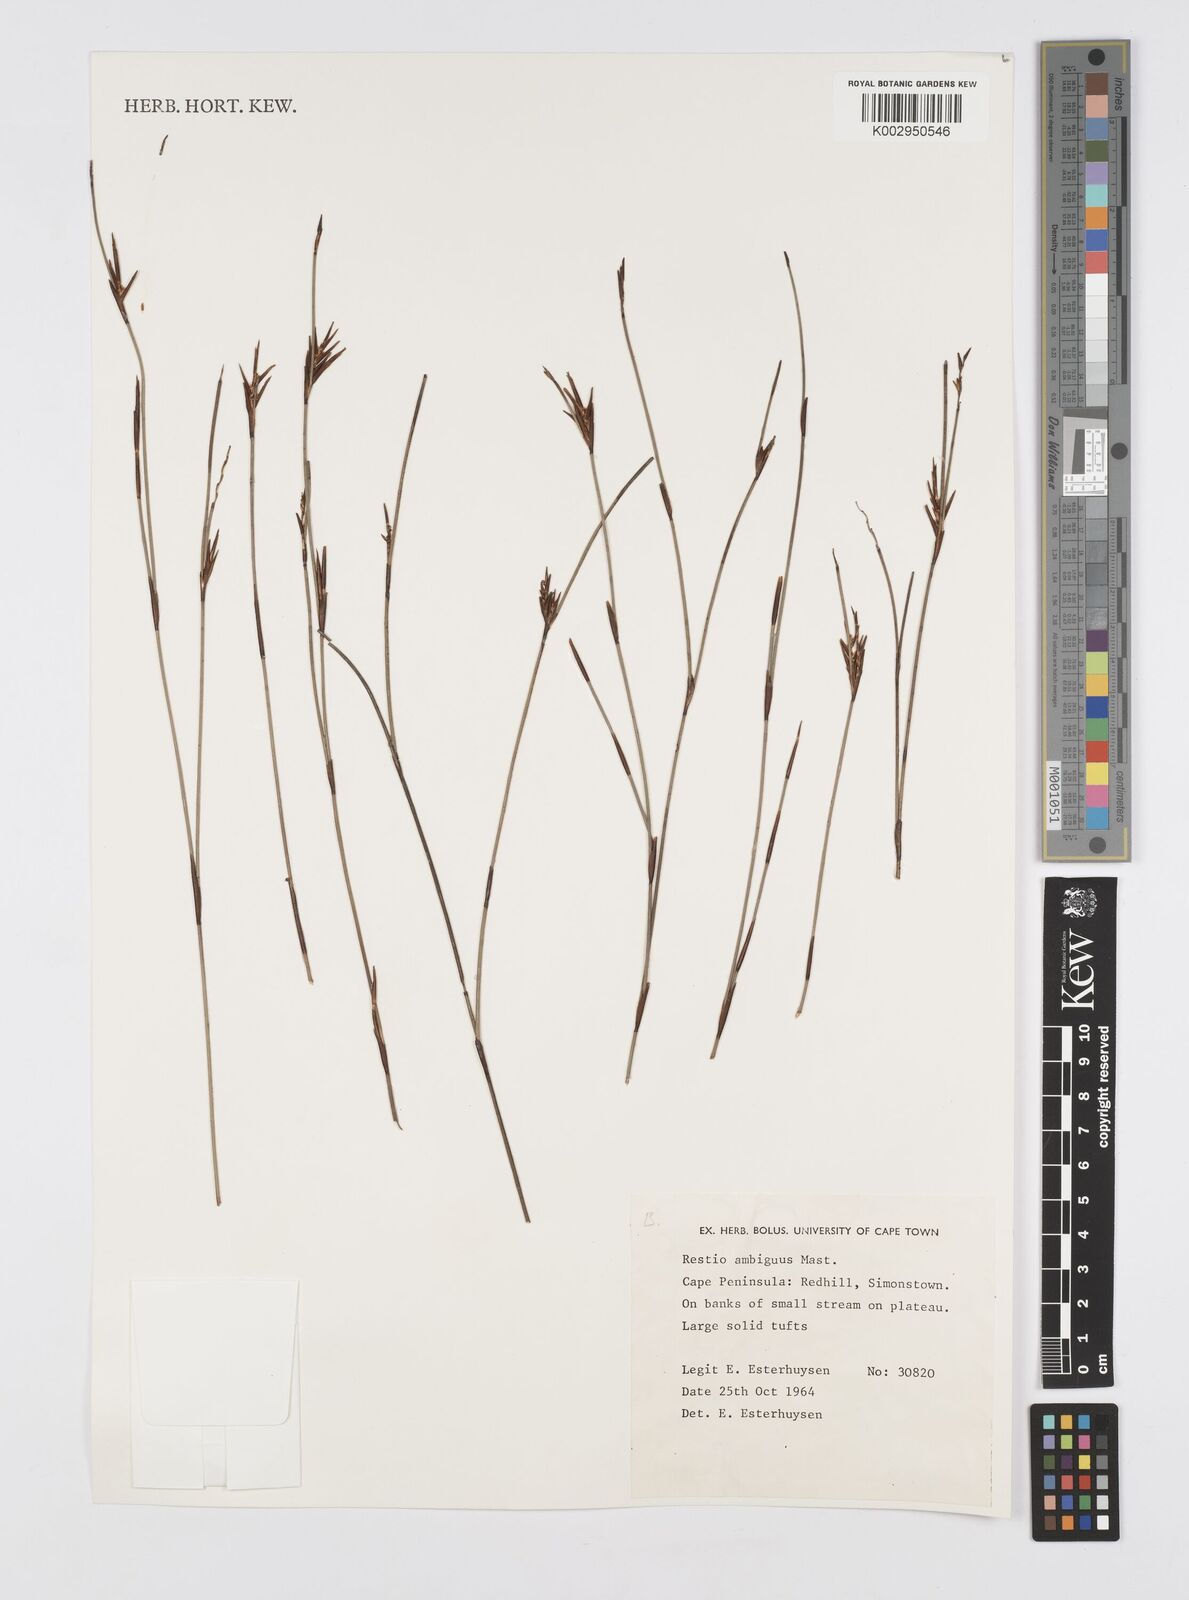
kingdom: Plantae
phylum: Tracheophyta
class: Liliopsida
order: Poales
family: Restionaceae
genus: Soroveta
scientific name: Soroveta ambigua
